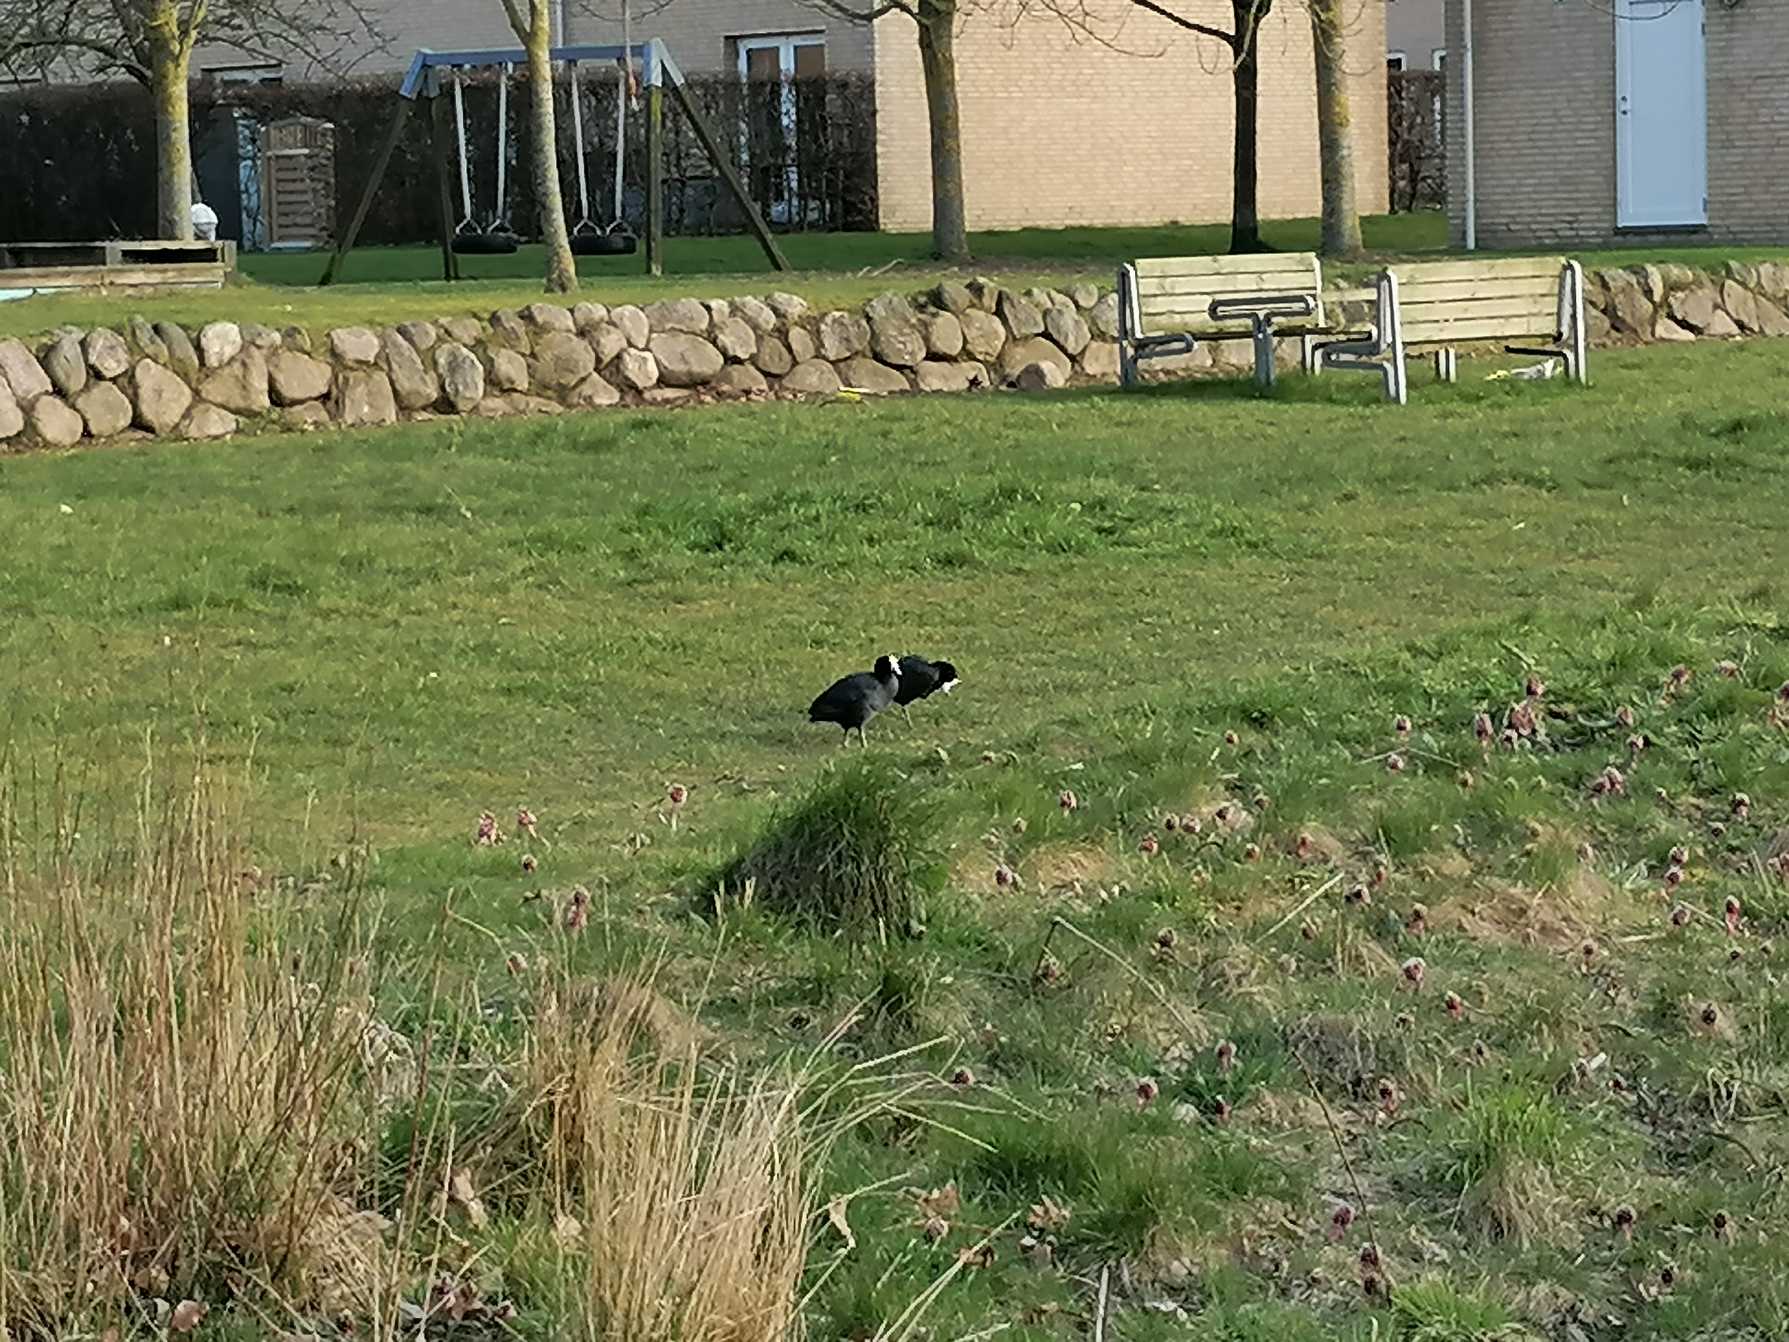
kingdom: Animalia
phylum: Chordata
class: Aves
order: Gruiformes
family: Rallidae
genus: Fulica
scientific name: Fulica atra
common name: Blishøne
